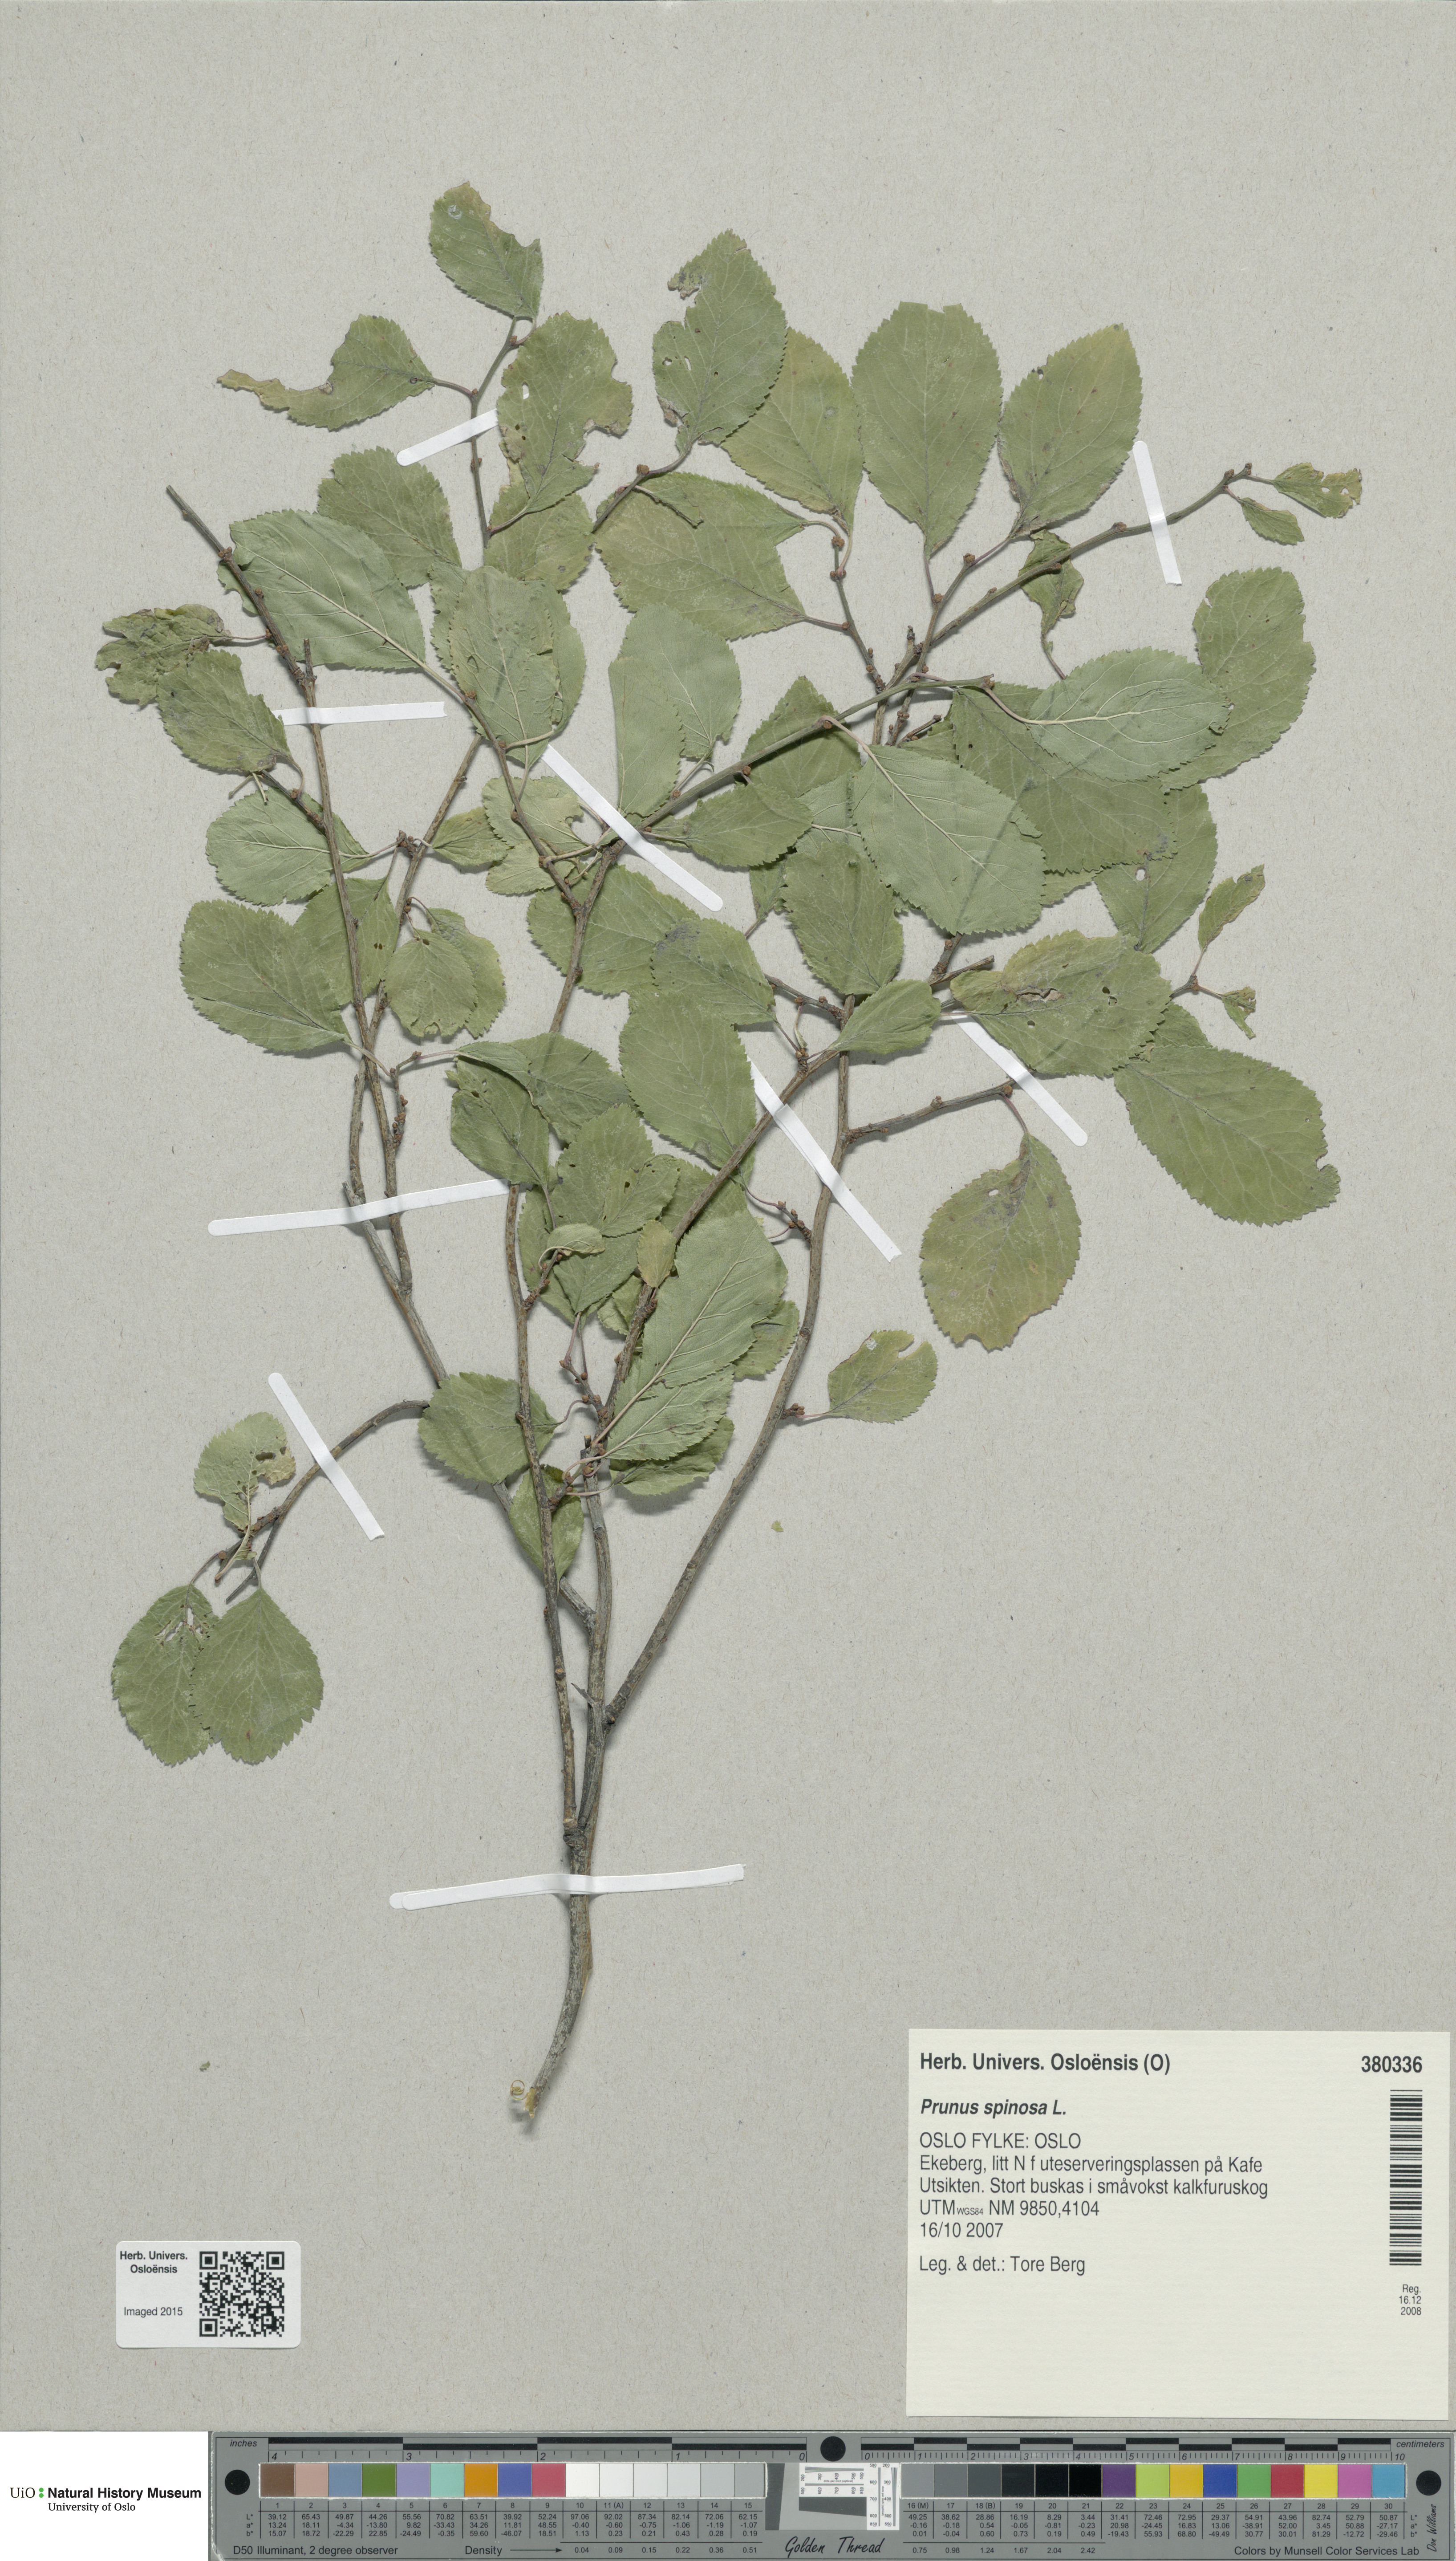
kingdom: Plantae
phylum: Tracheophyta
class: Magnoliopsida
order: Rosales
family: Rosaceae
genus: Prunus
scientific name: Prunus spinosa
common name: Blackthorn
